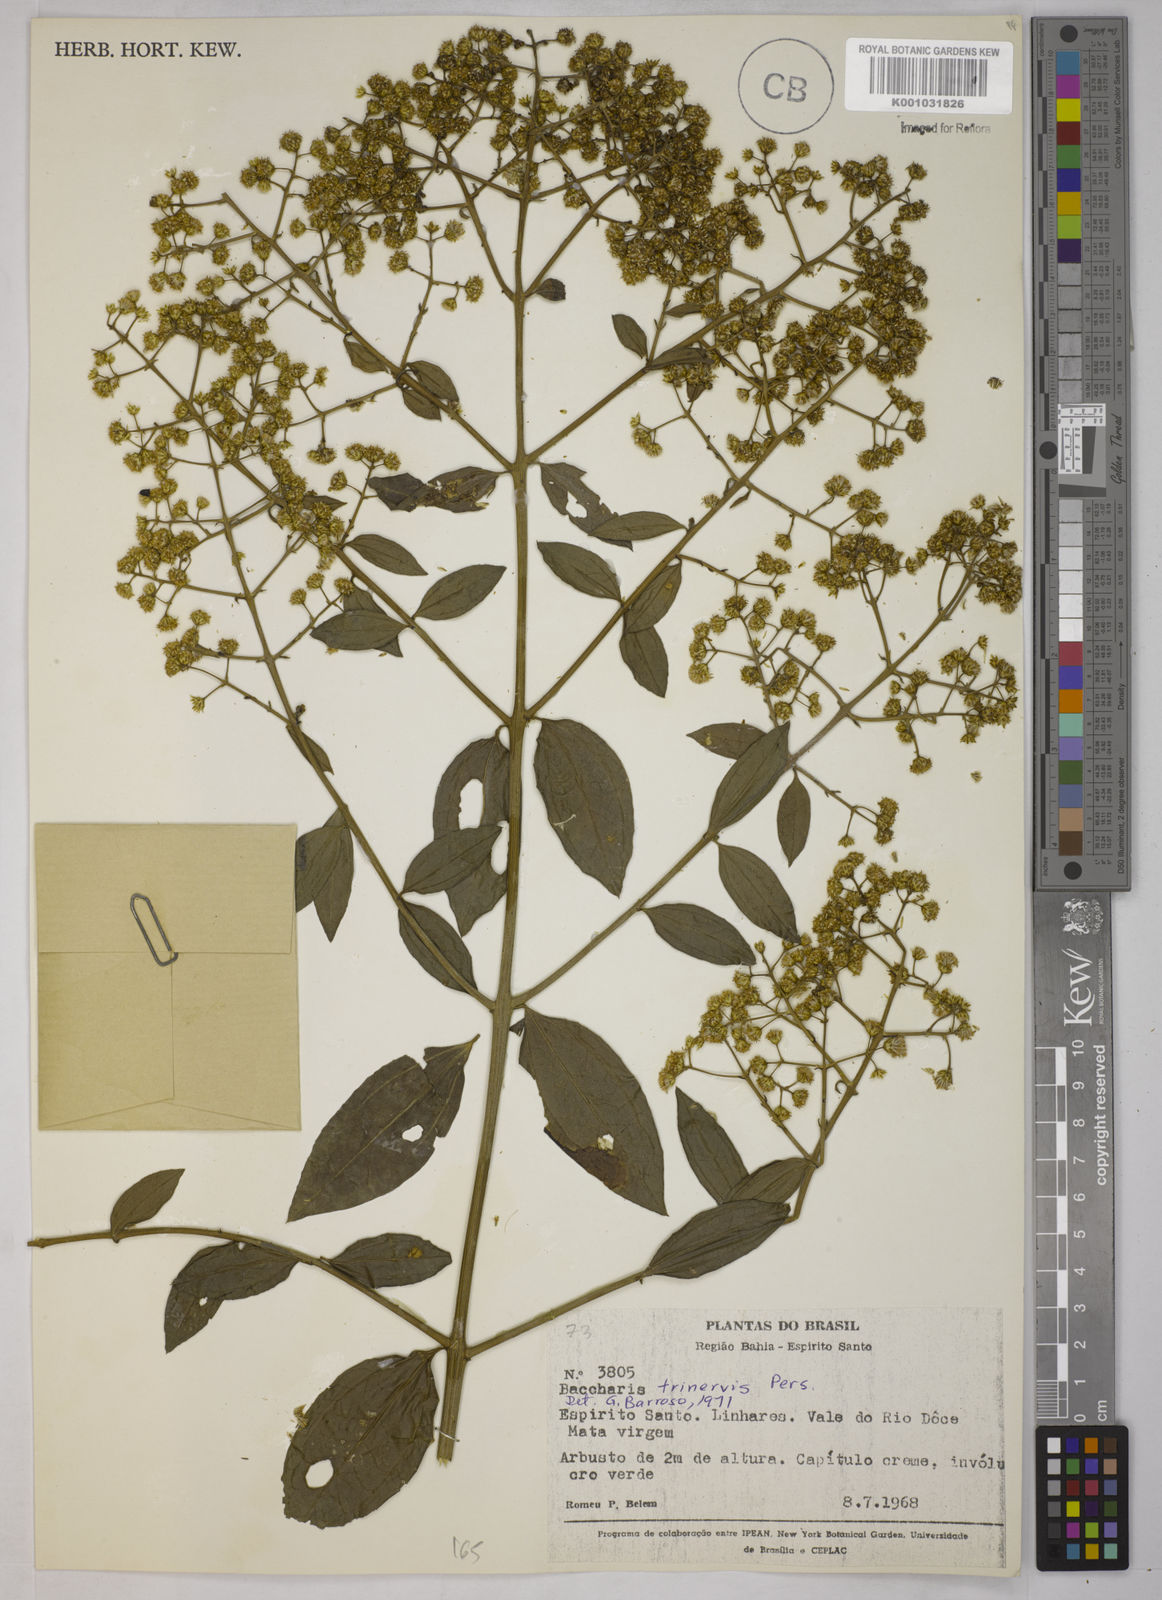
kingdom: Plantae
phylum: Tracheophyta
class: Magnoliopsida
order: Asterales
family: Asteraceae
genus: Baccharis
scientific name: Baccharis trinervis
